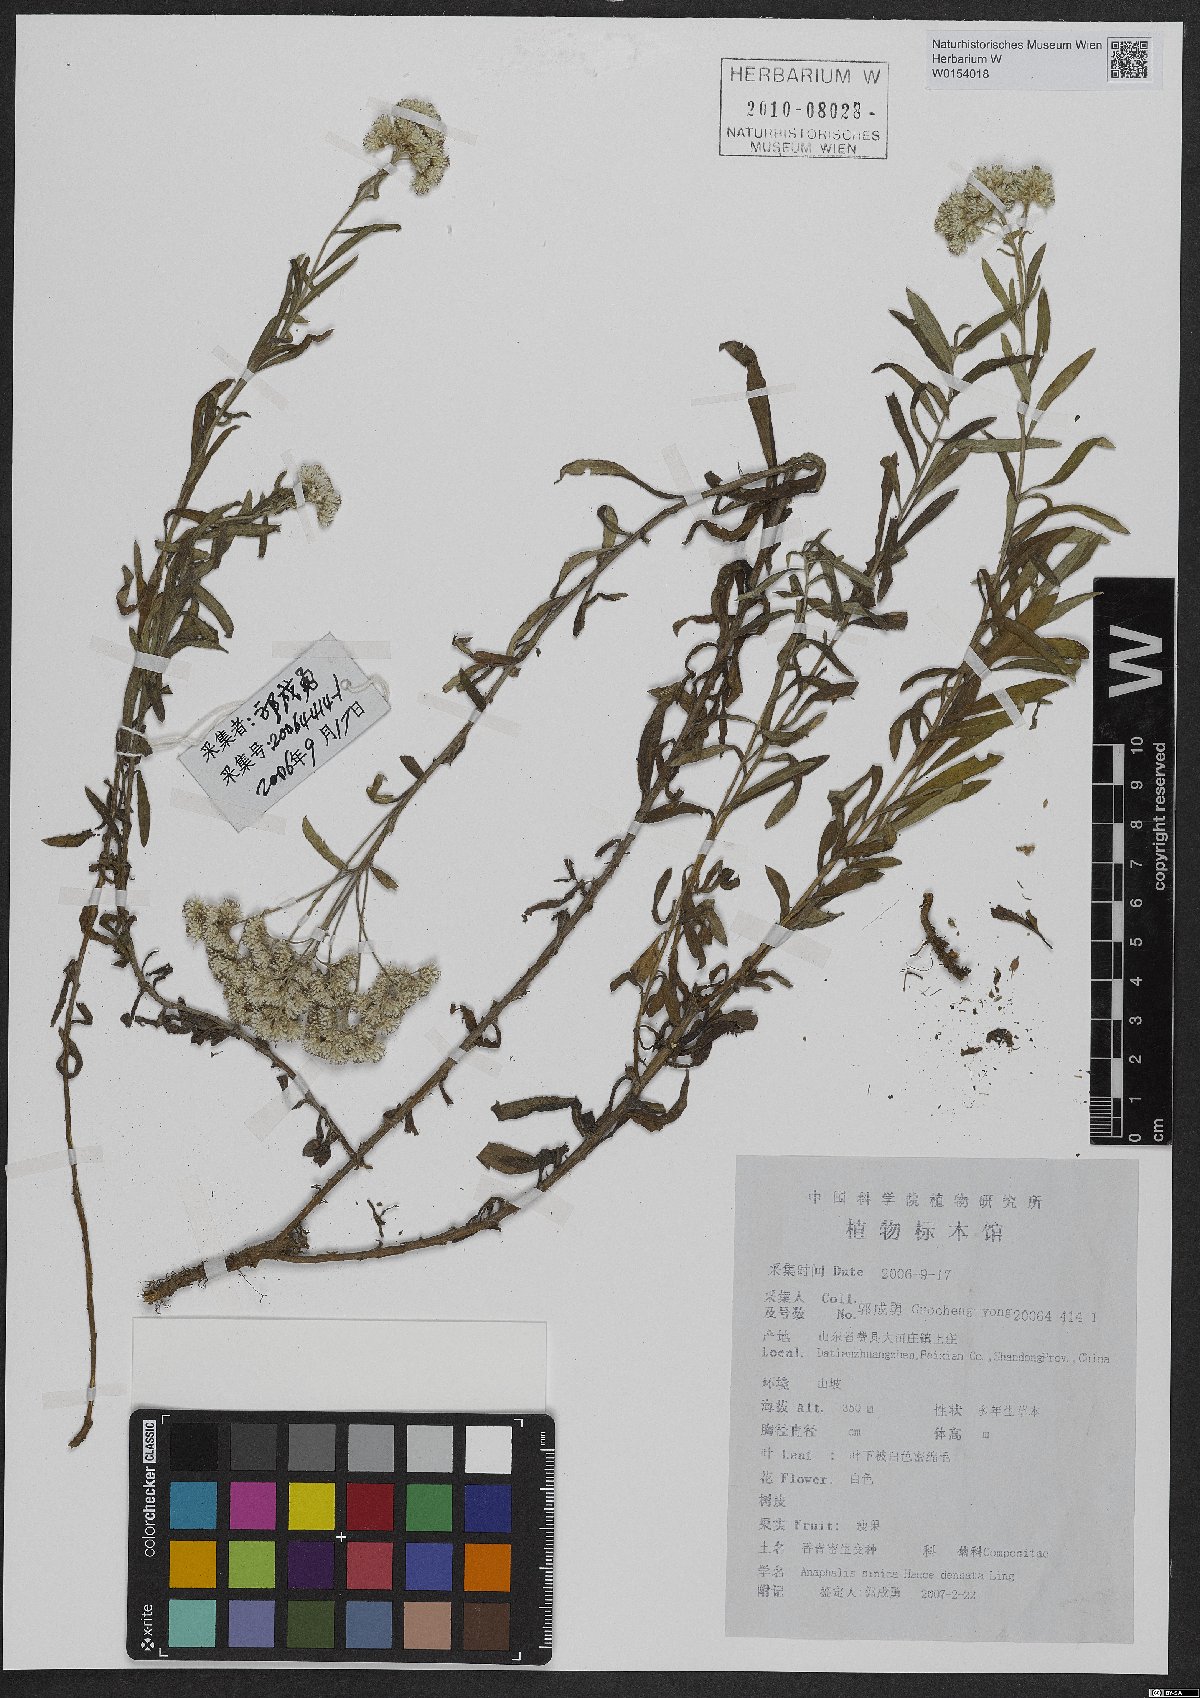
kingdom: Plantae
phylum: Tracheophyta
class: Magnoliopsida
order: Asterales
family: Asteraceae
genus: Anaphalis
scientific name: Anaphalis sinica
